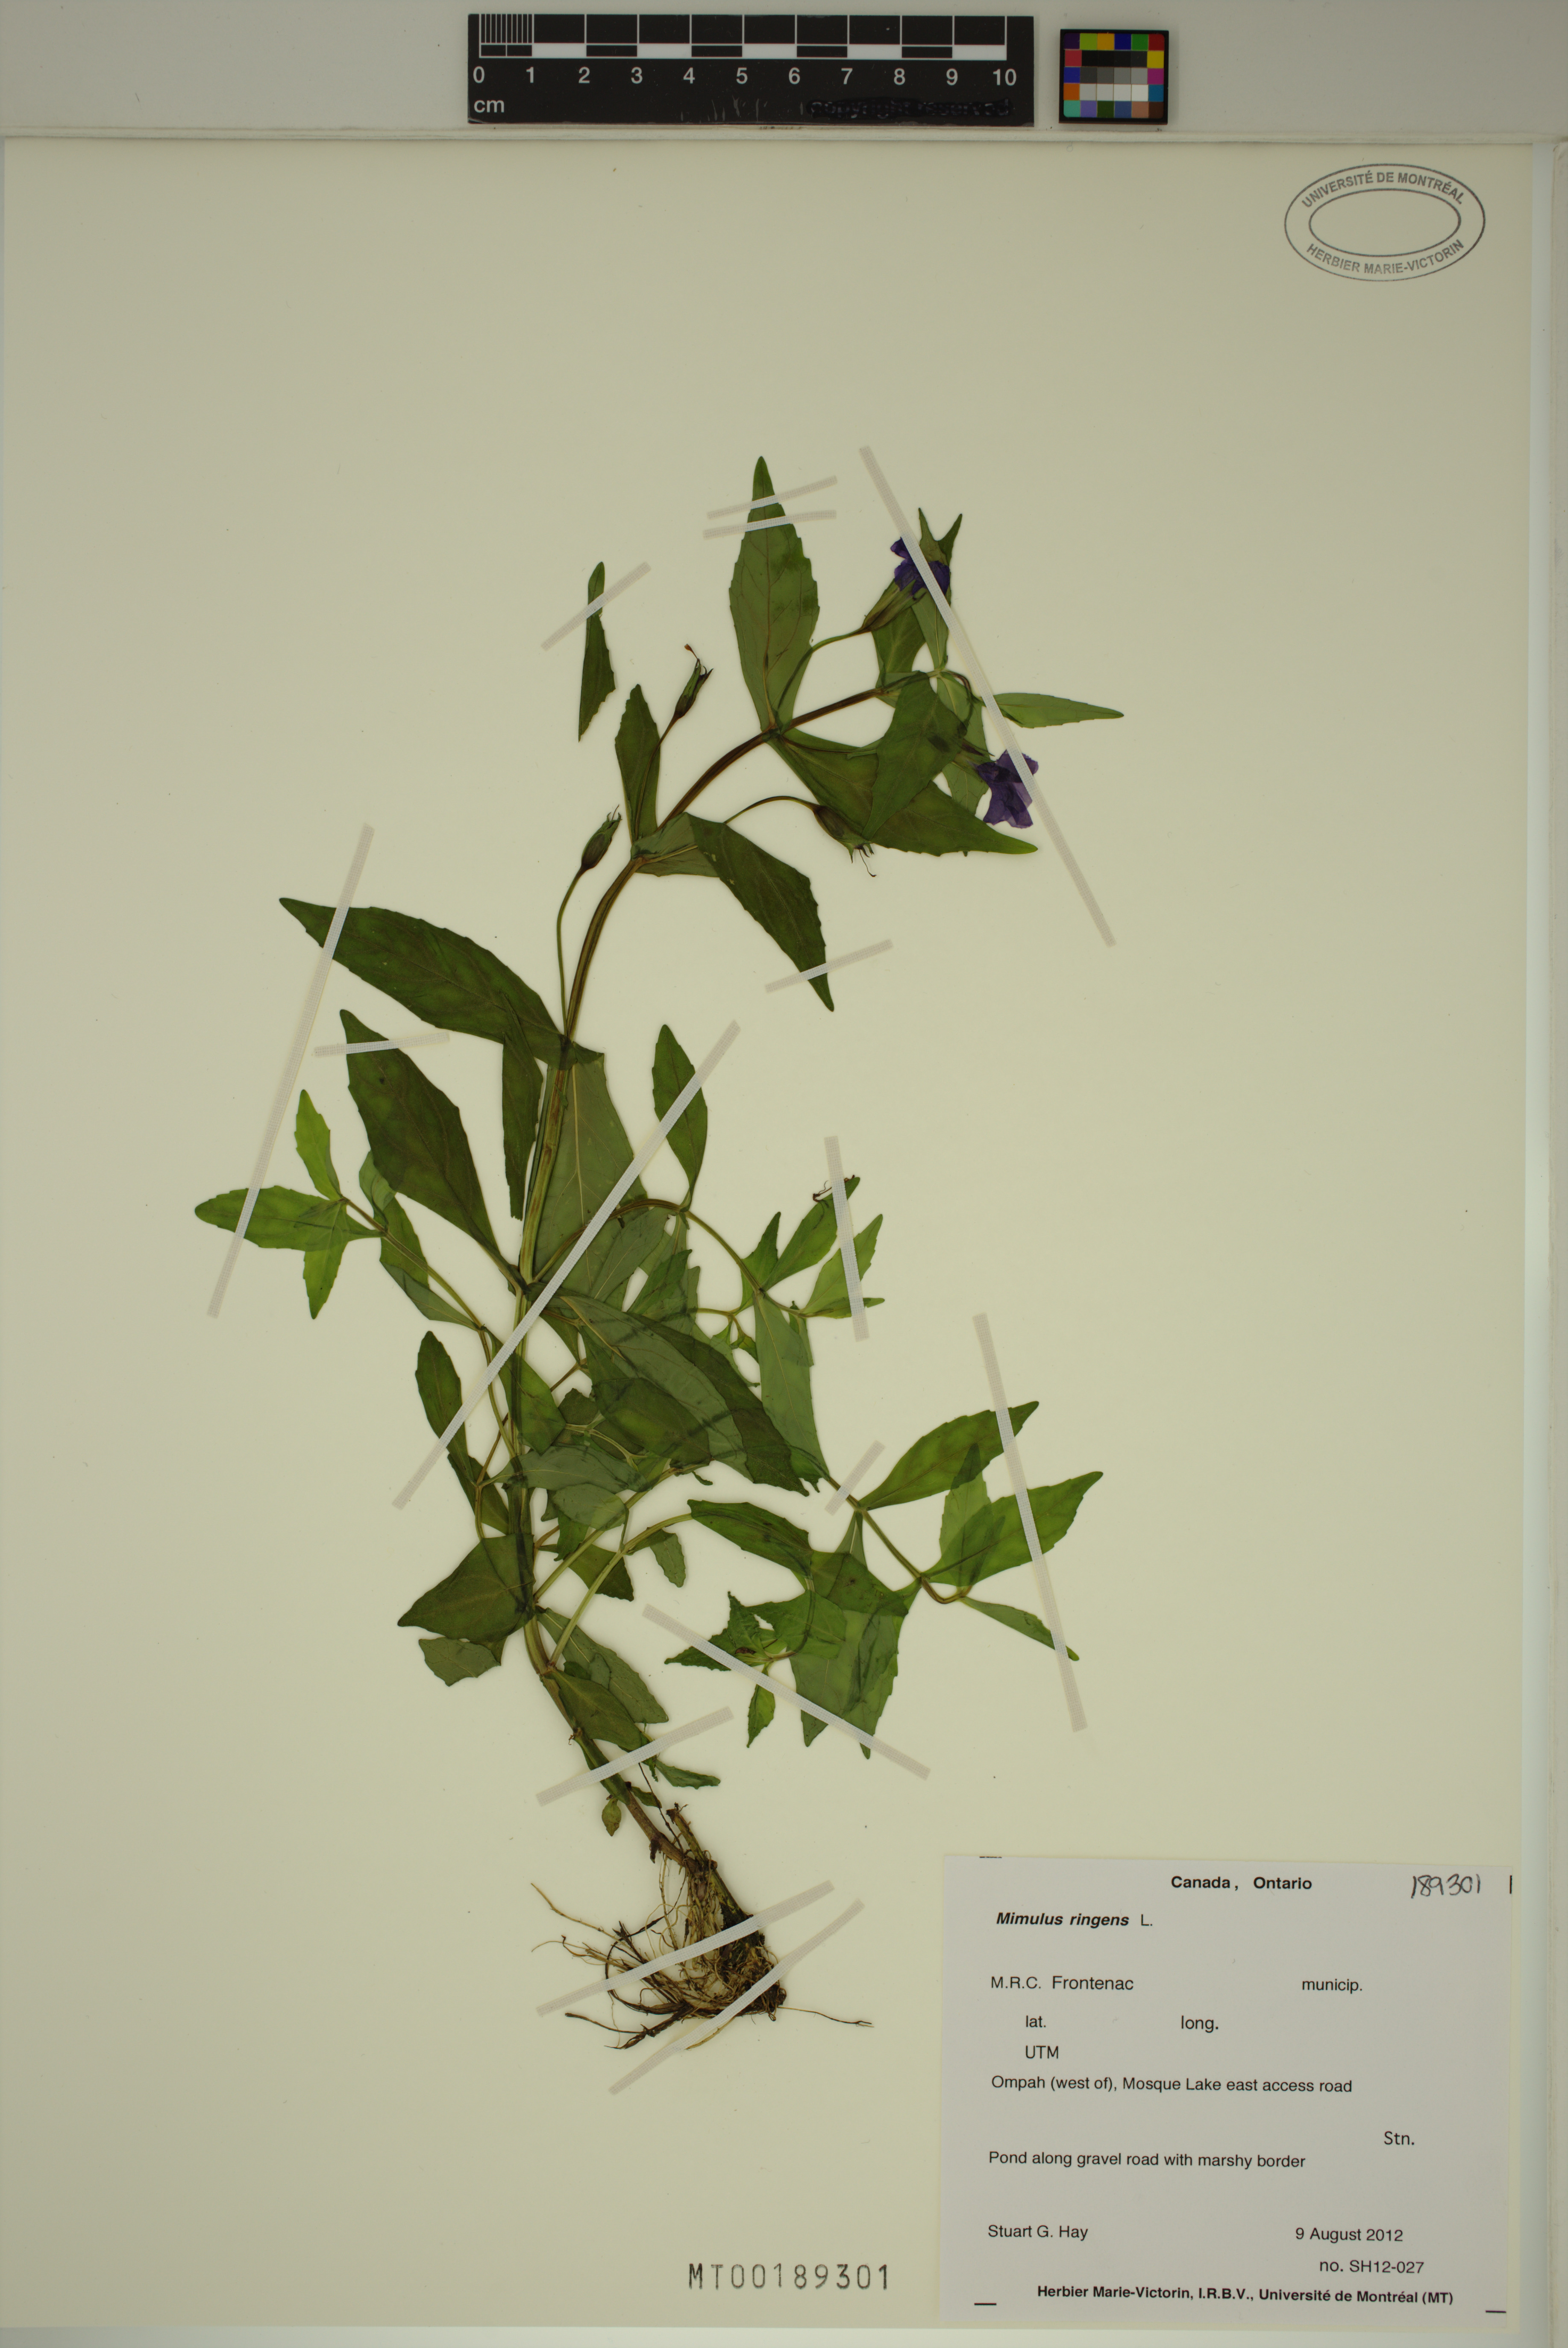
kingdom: Plantae
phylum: Tracheophyta
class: Magnoliopsida
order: Lamiales
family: Phrymaceae
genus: Mimulus
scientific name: Mimulus ringens
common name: Allegheny monkeyflower
